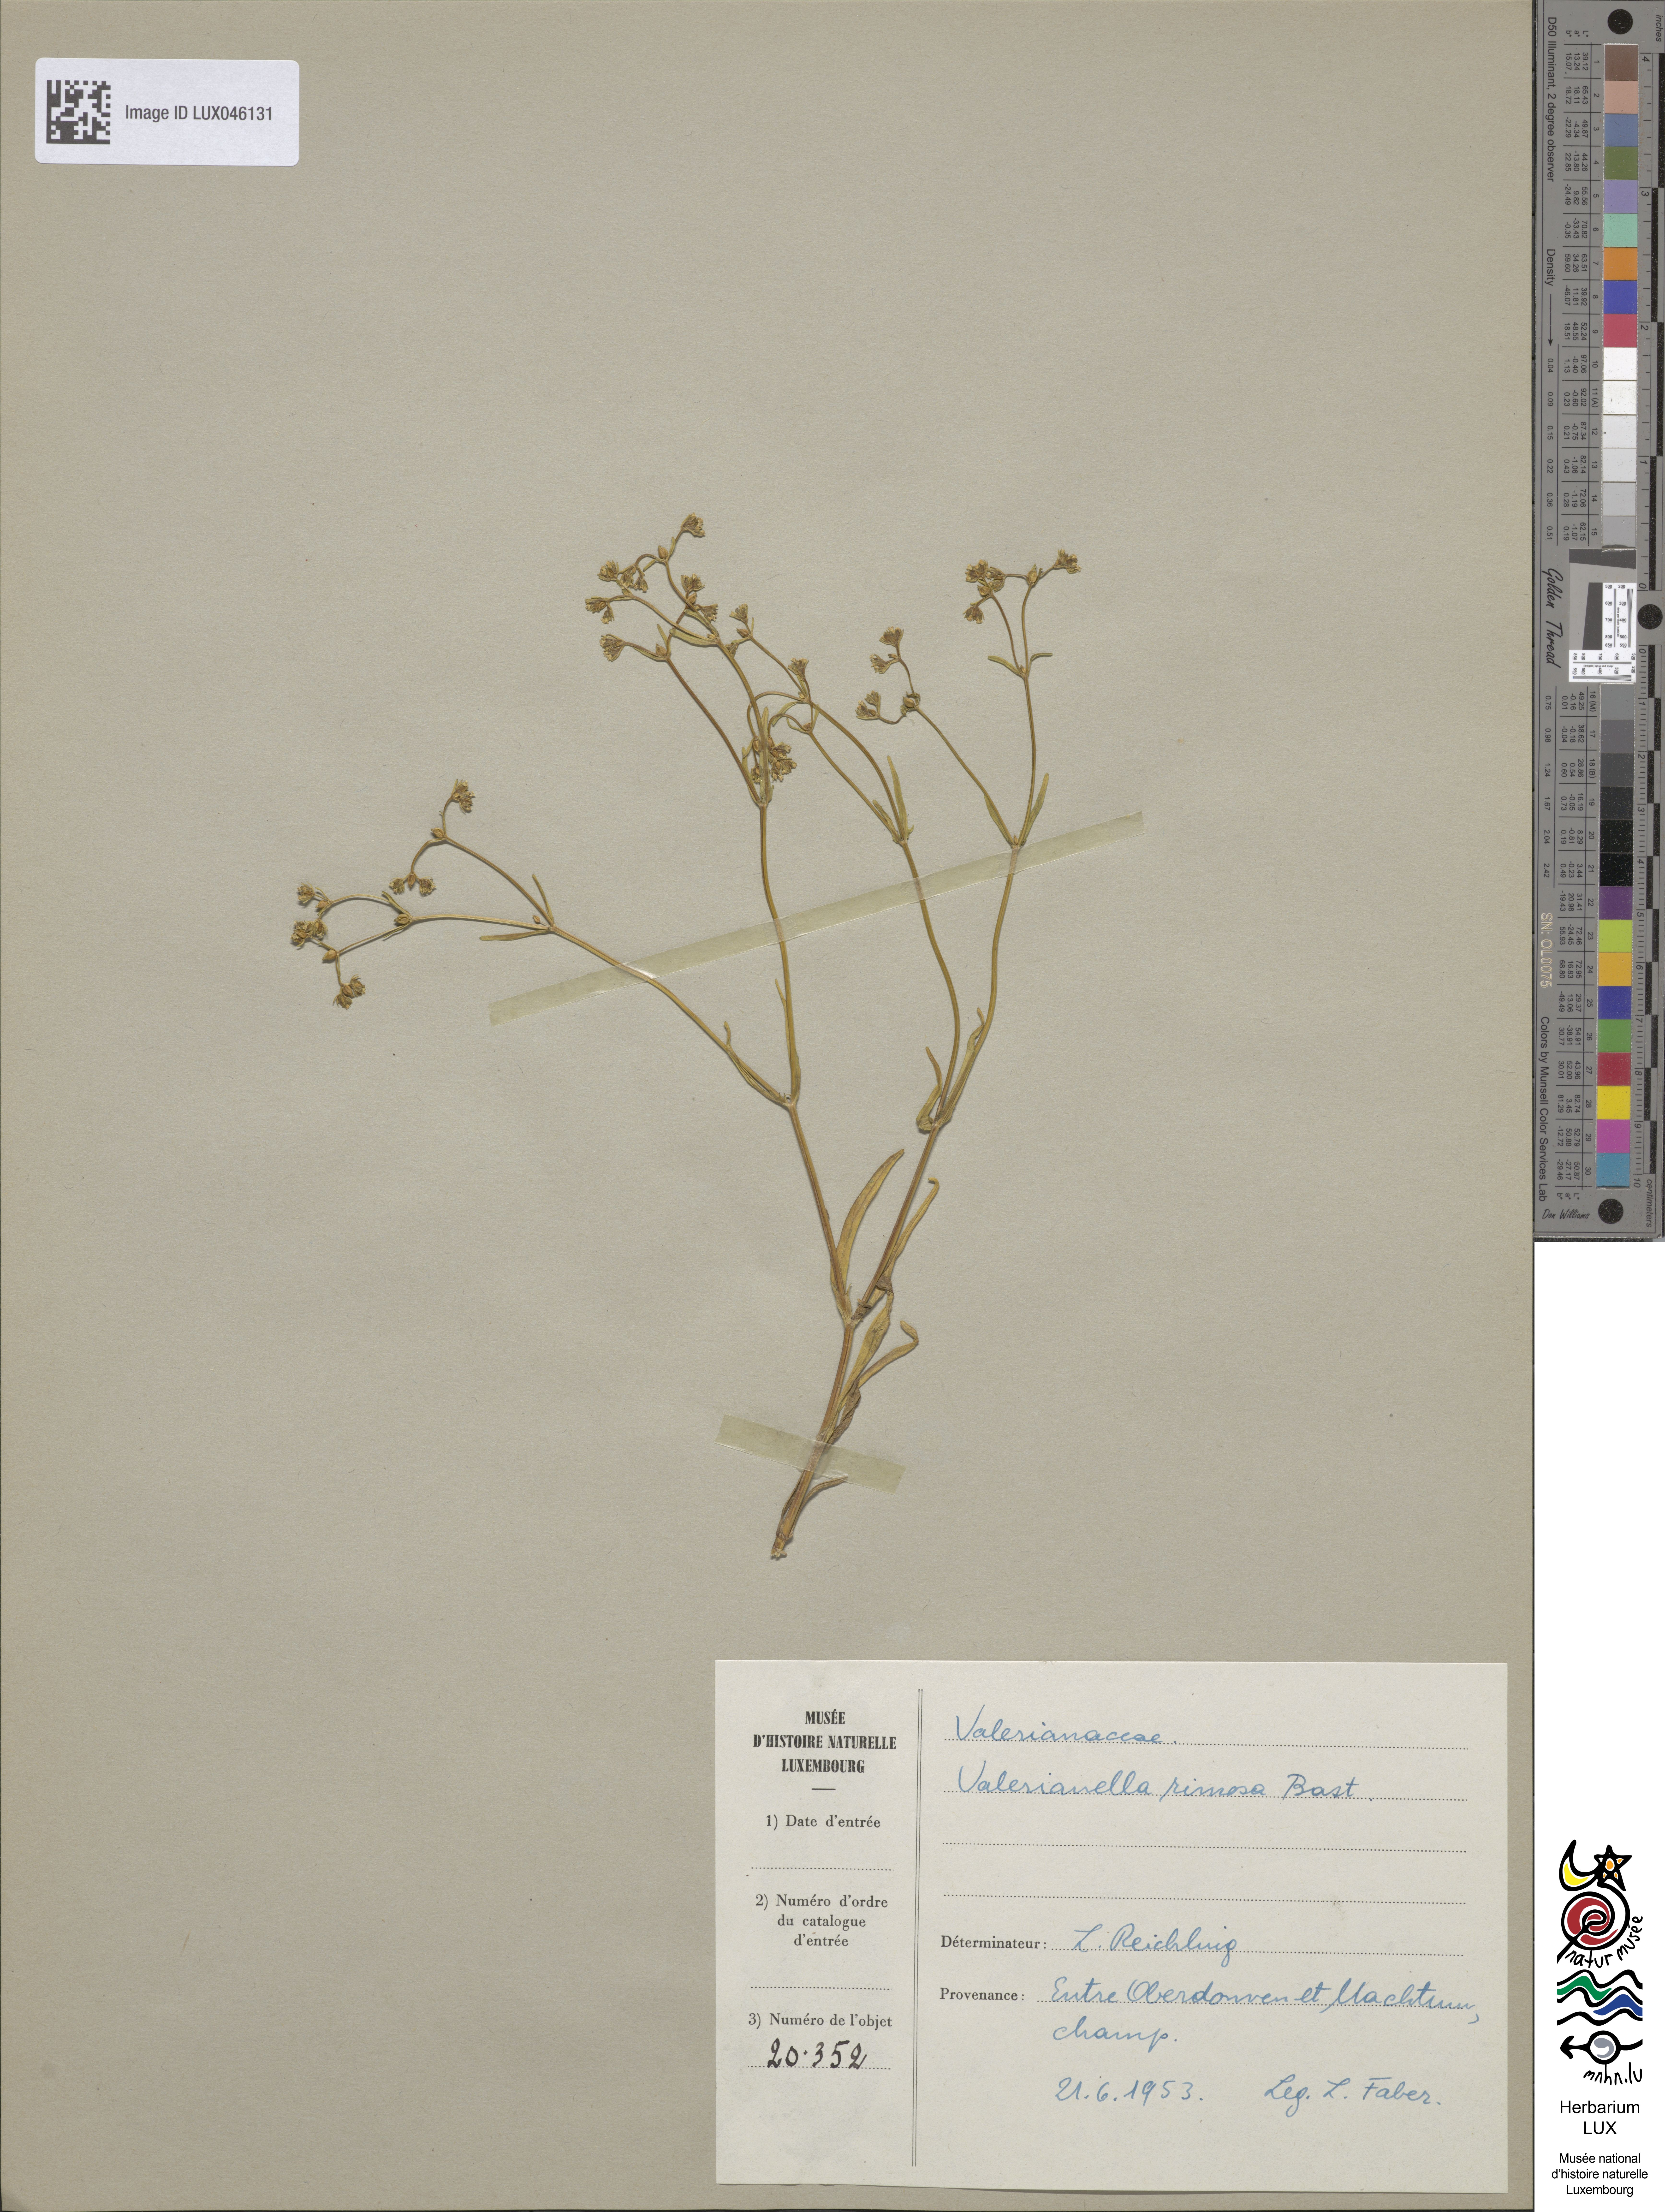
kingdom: Plantae
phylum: Tracheophyta
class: Magnoliopsida
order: Dipsacales
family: Caprifoliaceae
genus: Valerianella
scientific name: Valerianella rimosa
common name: Broad-fruited cornsalad
